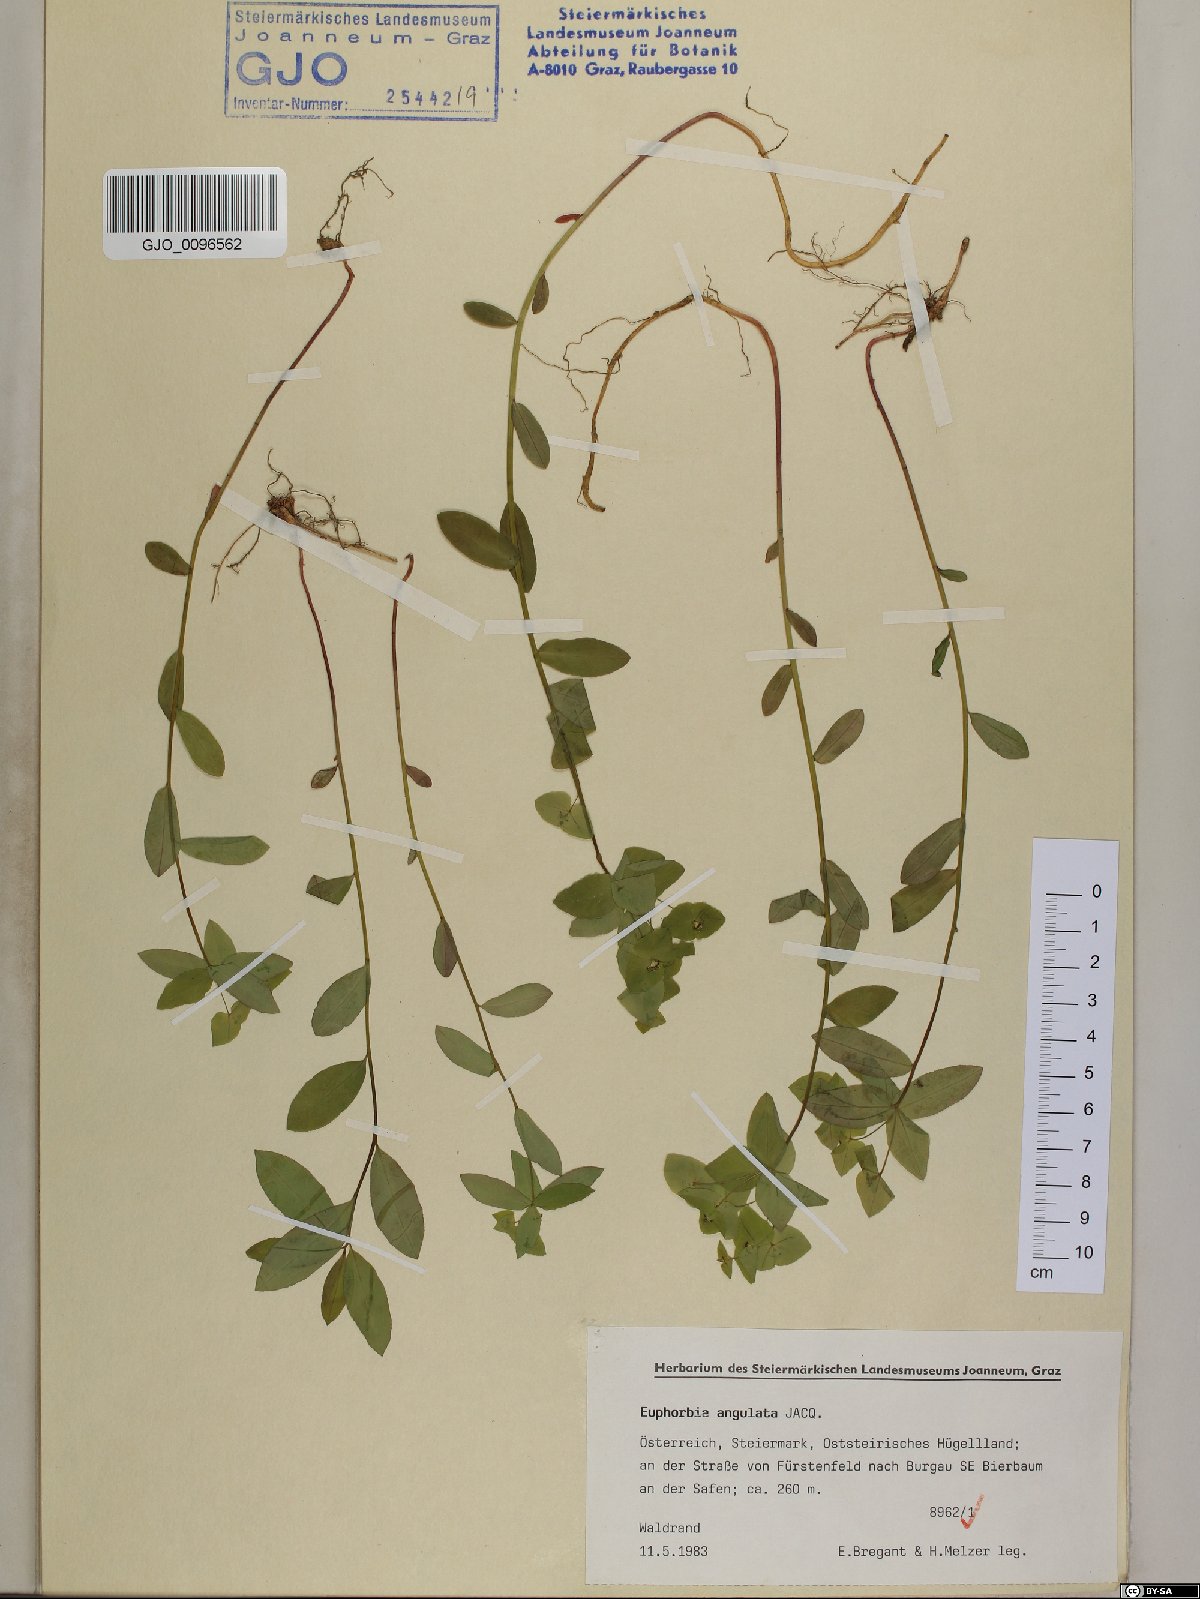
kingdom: Plantae
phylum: Tracheophyta
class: Magnoliopsida
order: Malpighiales
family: Euphorbiaceae
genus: Euphorbia
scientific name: Euphorbia angulata
